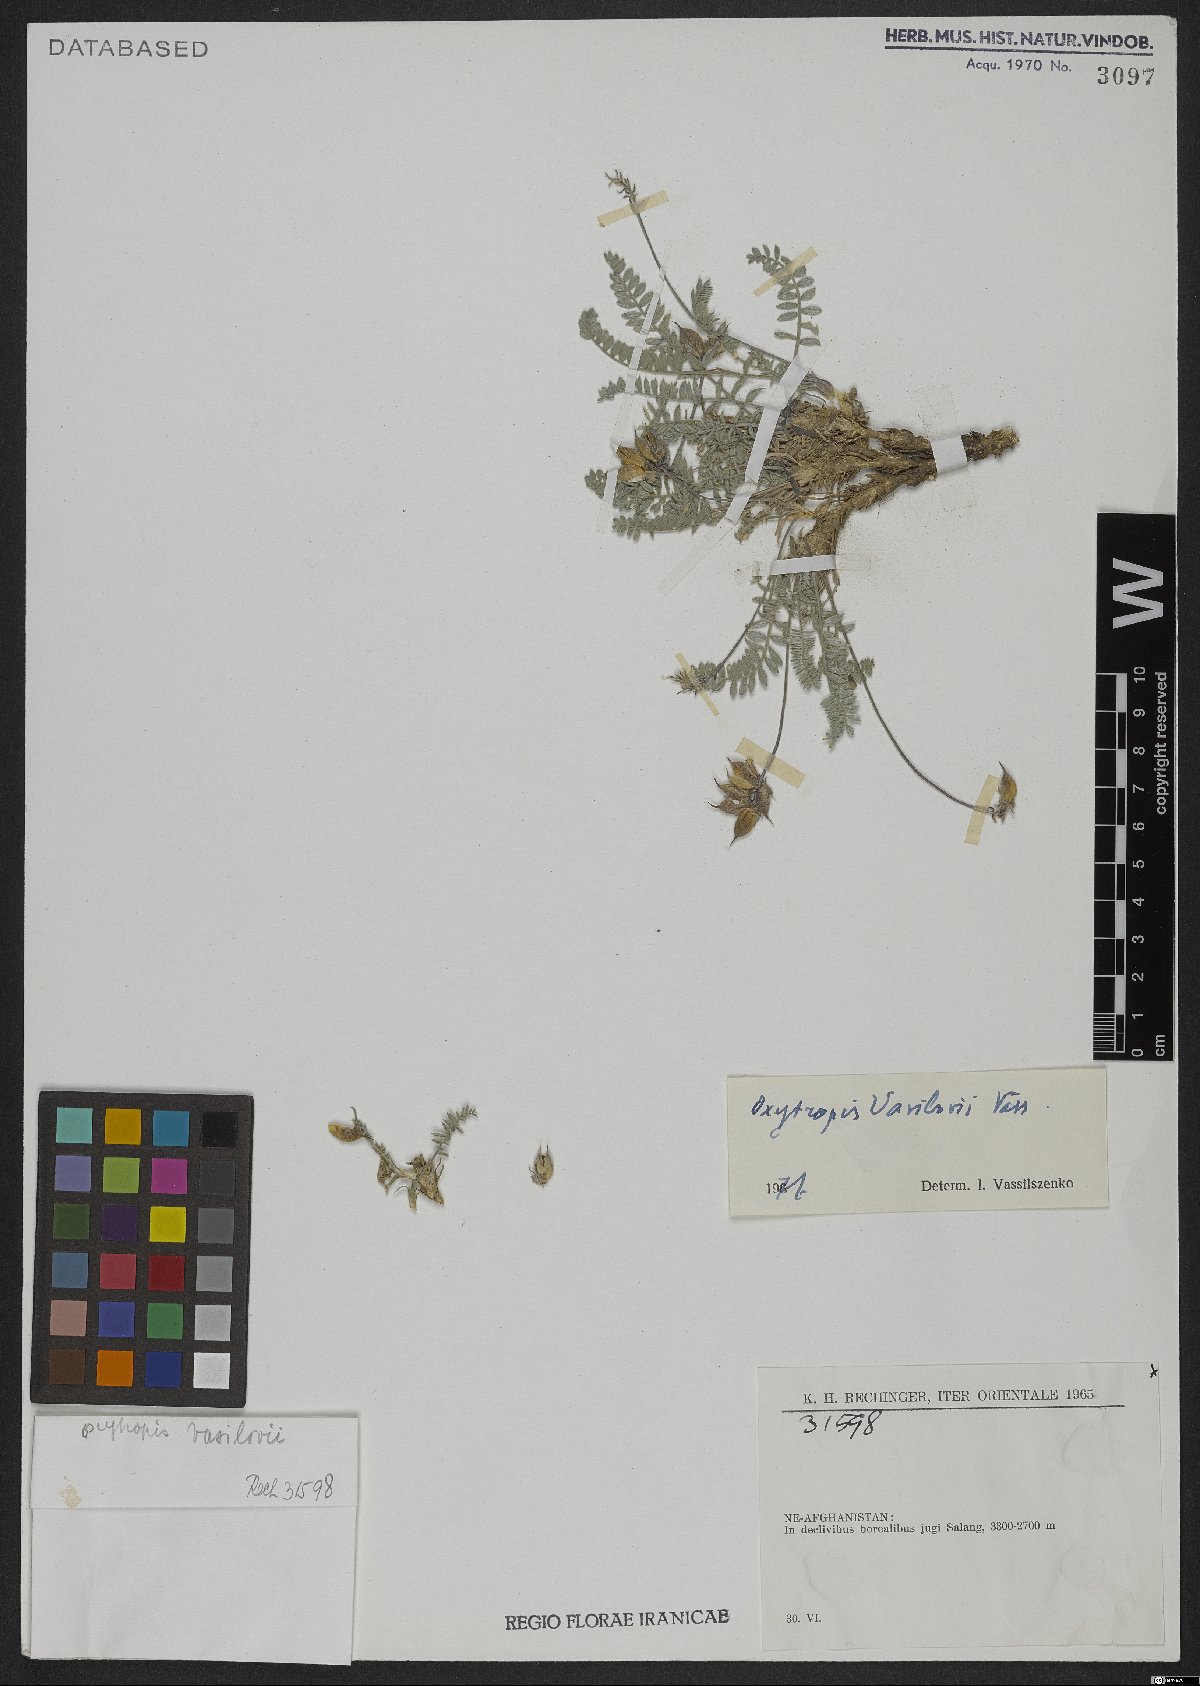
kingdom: Plantae
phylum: Tracheophyta
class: Magnoliopsida
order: Fabales
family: Fabaceae
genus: Oxytropis
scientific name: Oxytropis vavilovii
